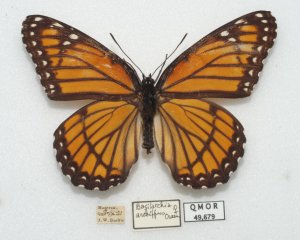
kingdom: Animalia
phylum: Arthropoda
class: Insecta
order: Lepidoptera
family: Nymphalidae
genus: Limenitis
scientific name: Limenitis archippus
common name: Viceroy
